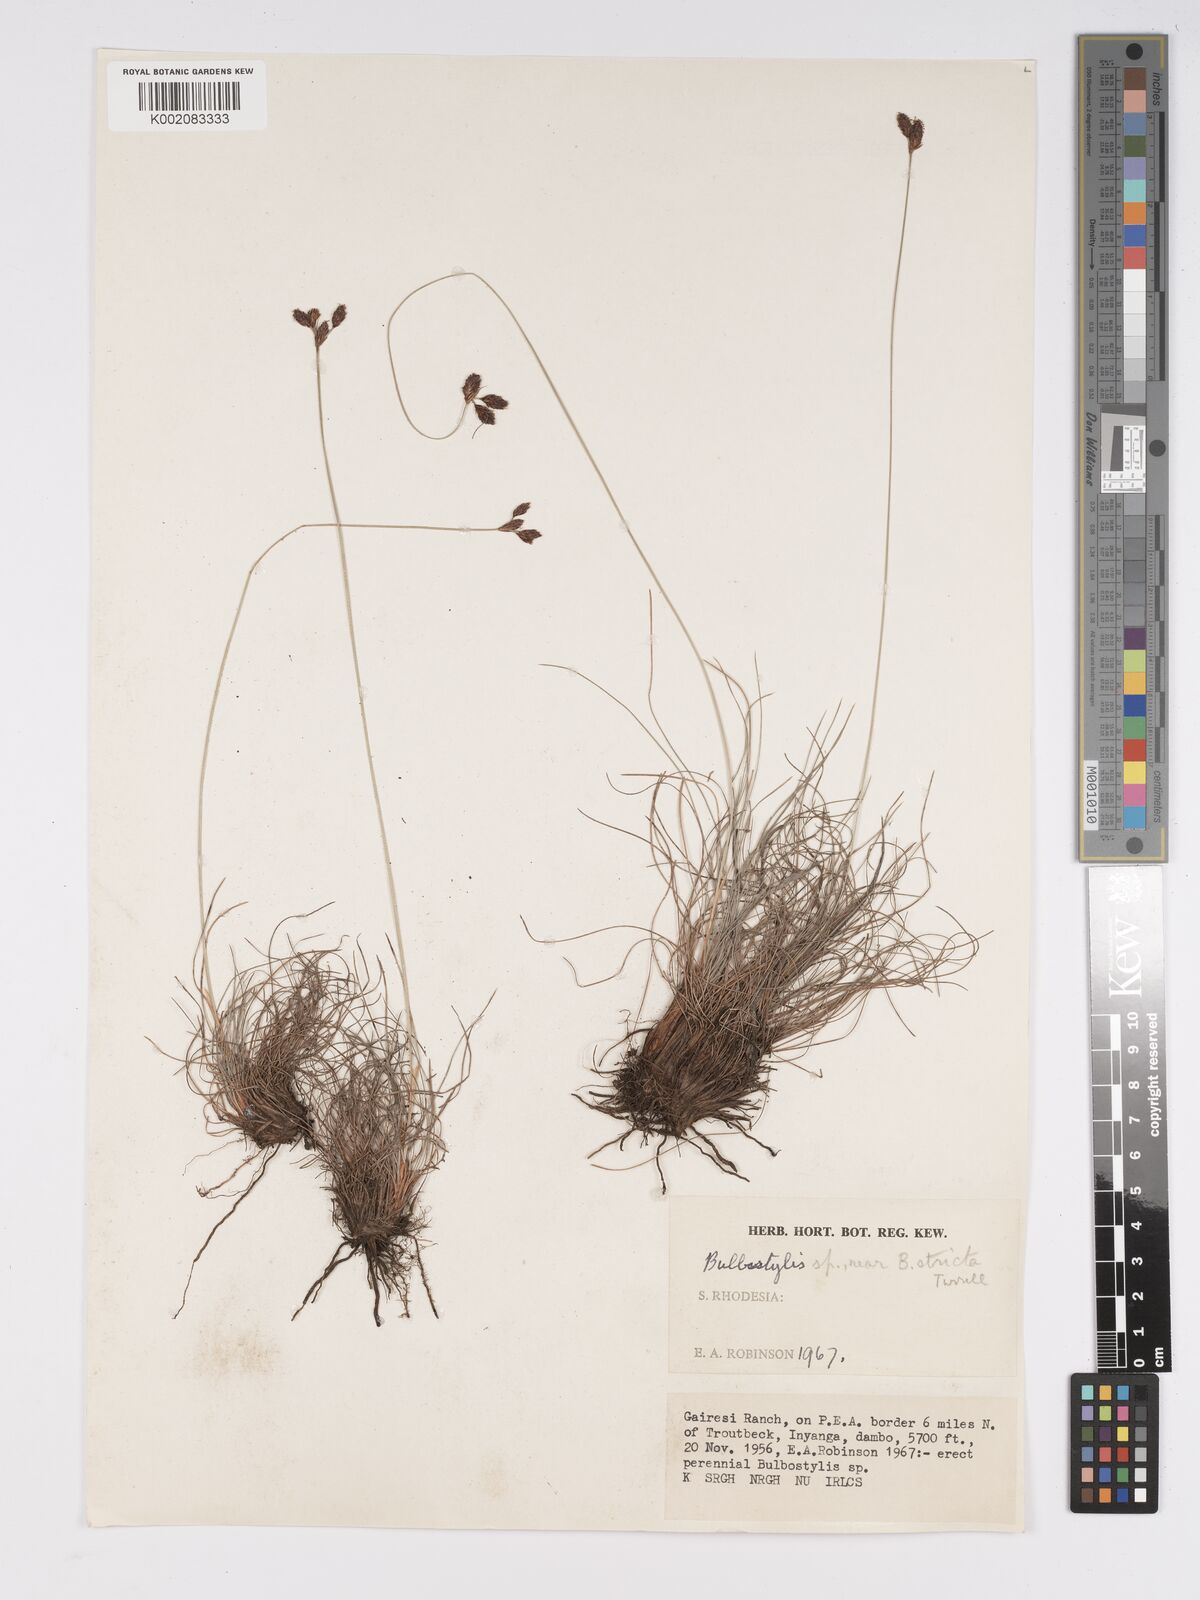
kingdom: Plantae
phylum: Tracheophyta
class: Liliopsida
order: Poales
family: Cyperaceae
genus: Bulbostylis
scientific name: Bulbostylis schoenoides
